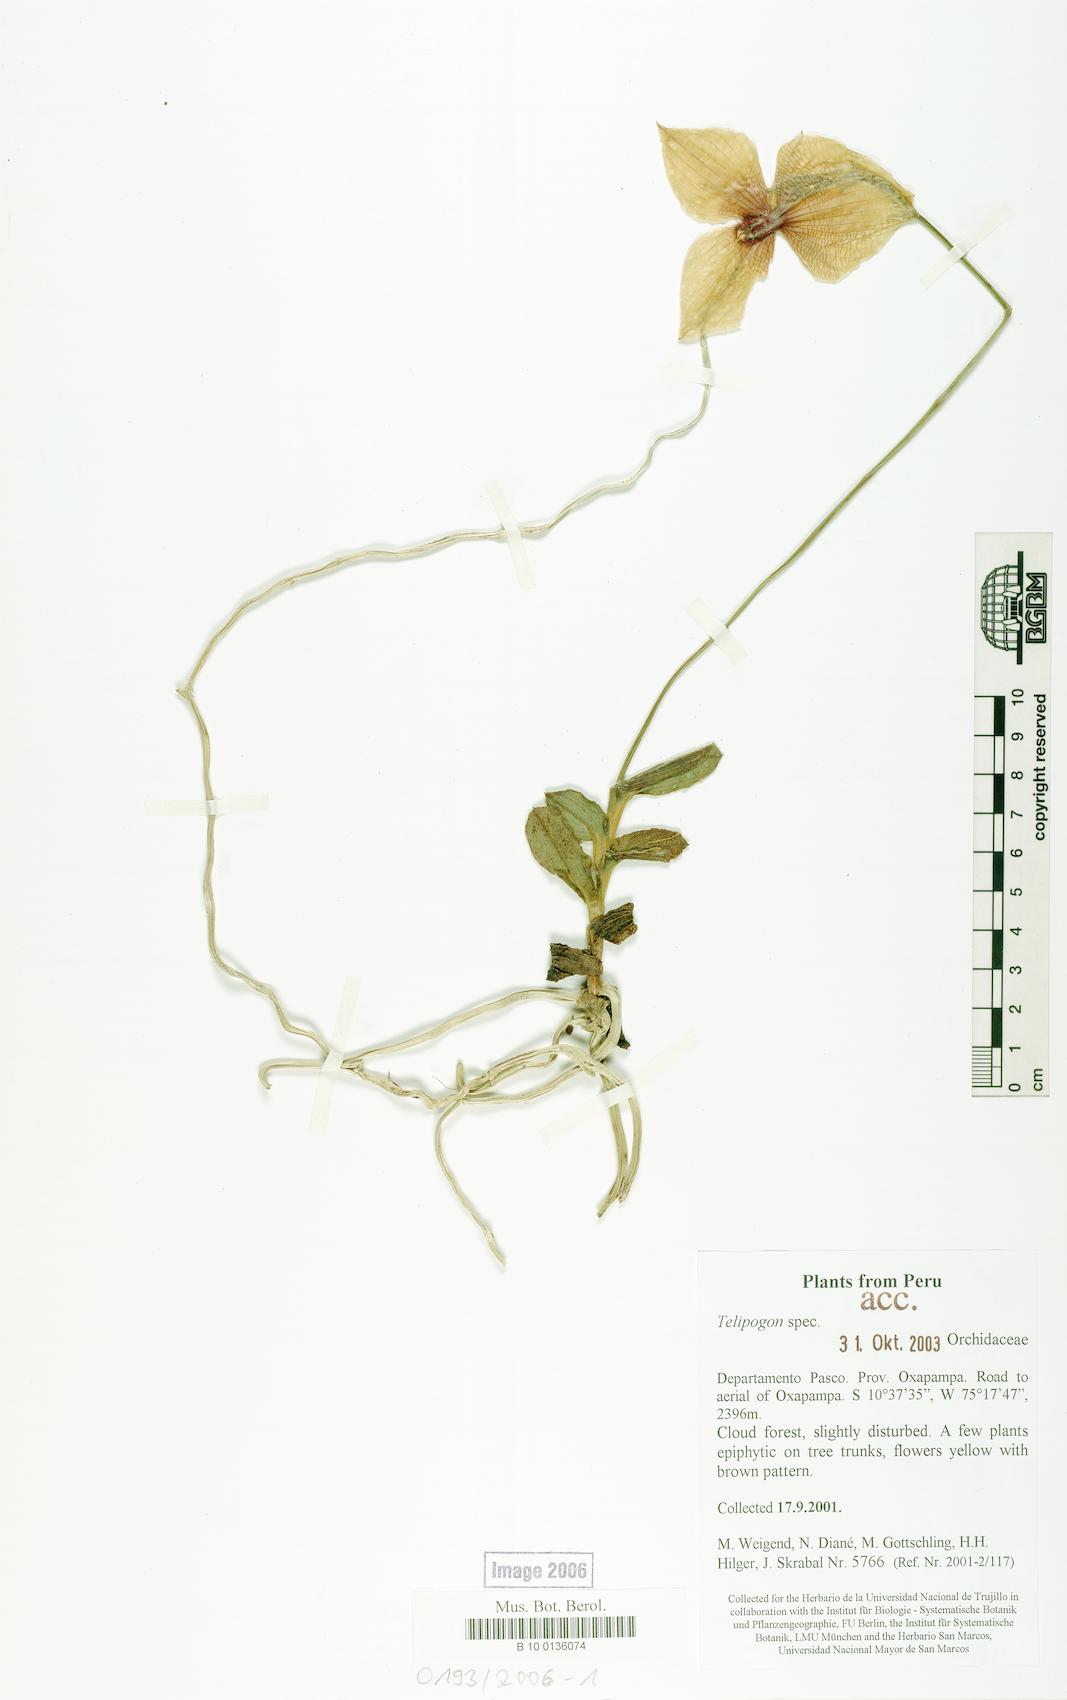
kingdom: Plantae
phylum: Tracheophyta
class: Liliopsida
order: Asparagales
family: Orchidaceae
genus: Telipogon
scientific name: Telipogon
